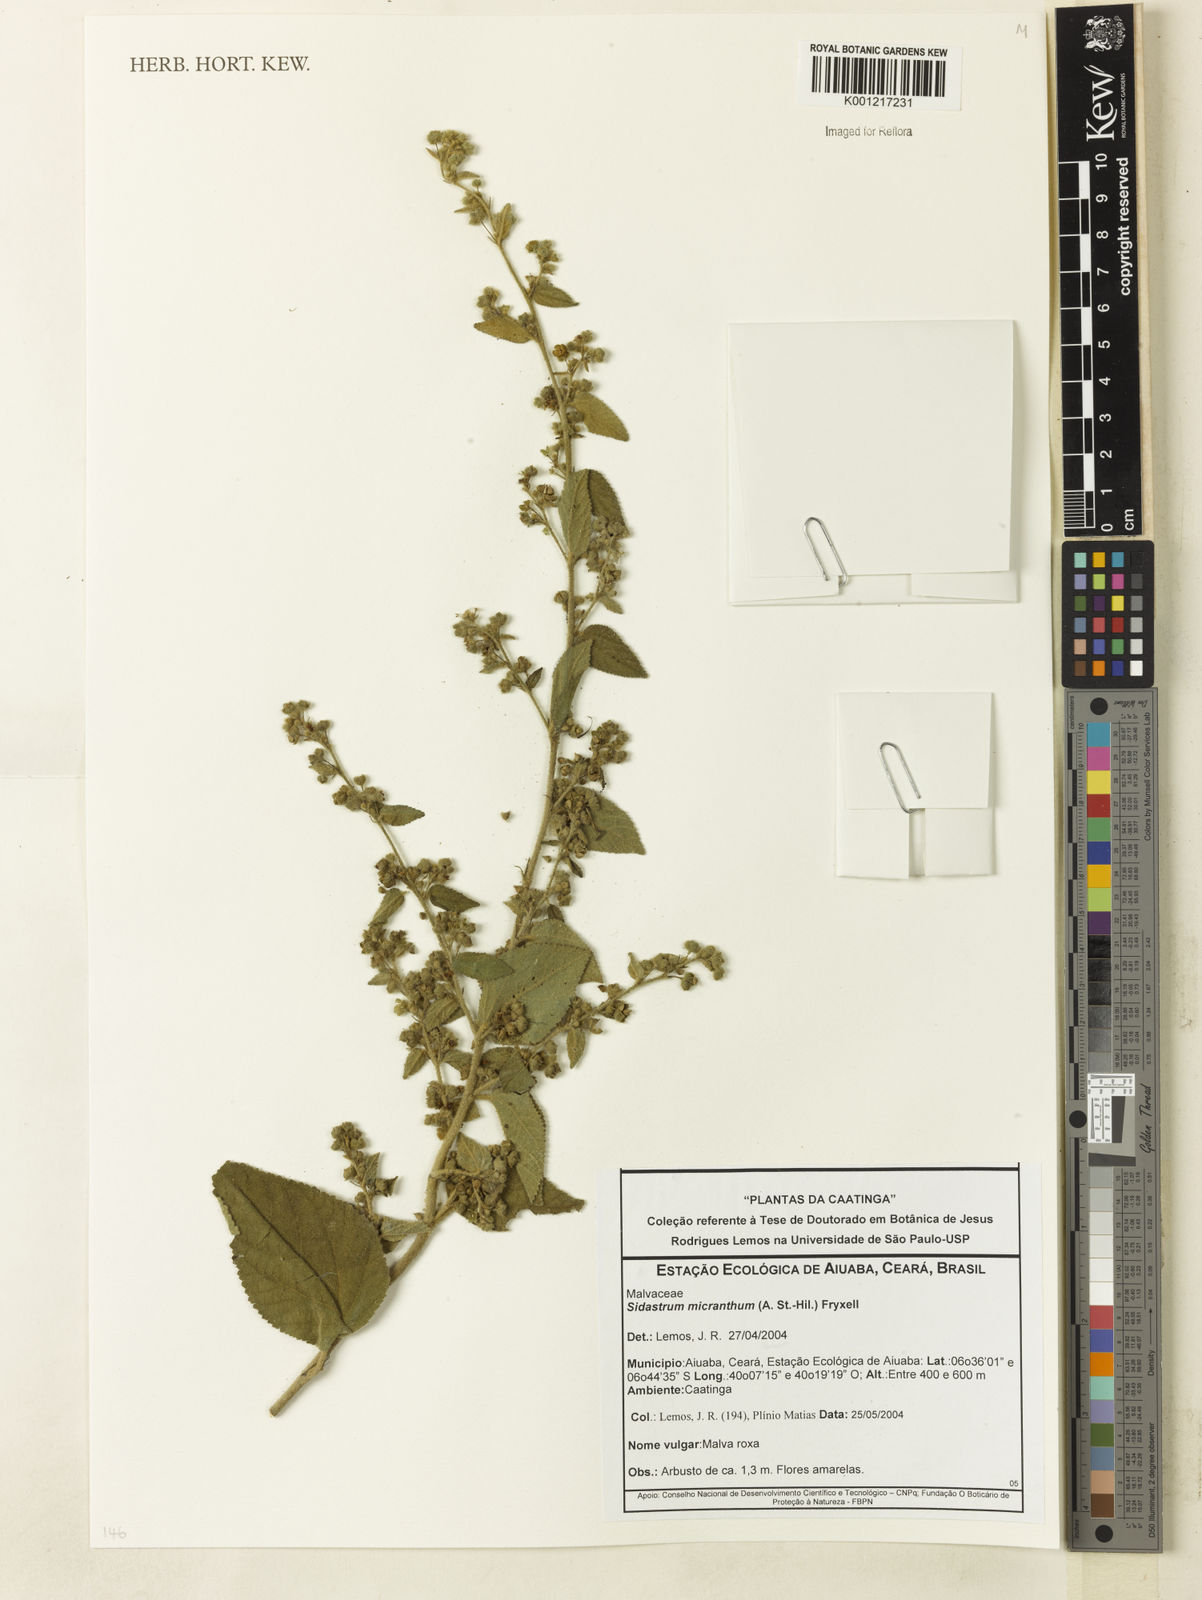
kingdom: Plantae
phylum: Tracheophyta
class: Magnoliopsida
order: Malvales
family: Malvaceae
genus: Sidastrum
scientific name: Sidastrum micranthum
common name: Dainty sandmallow
